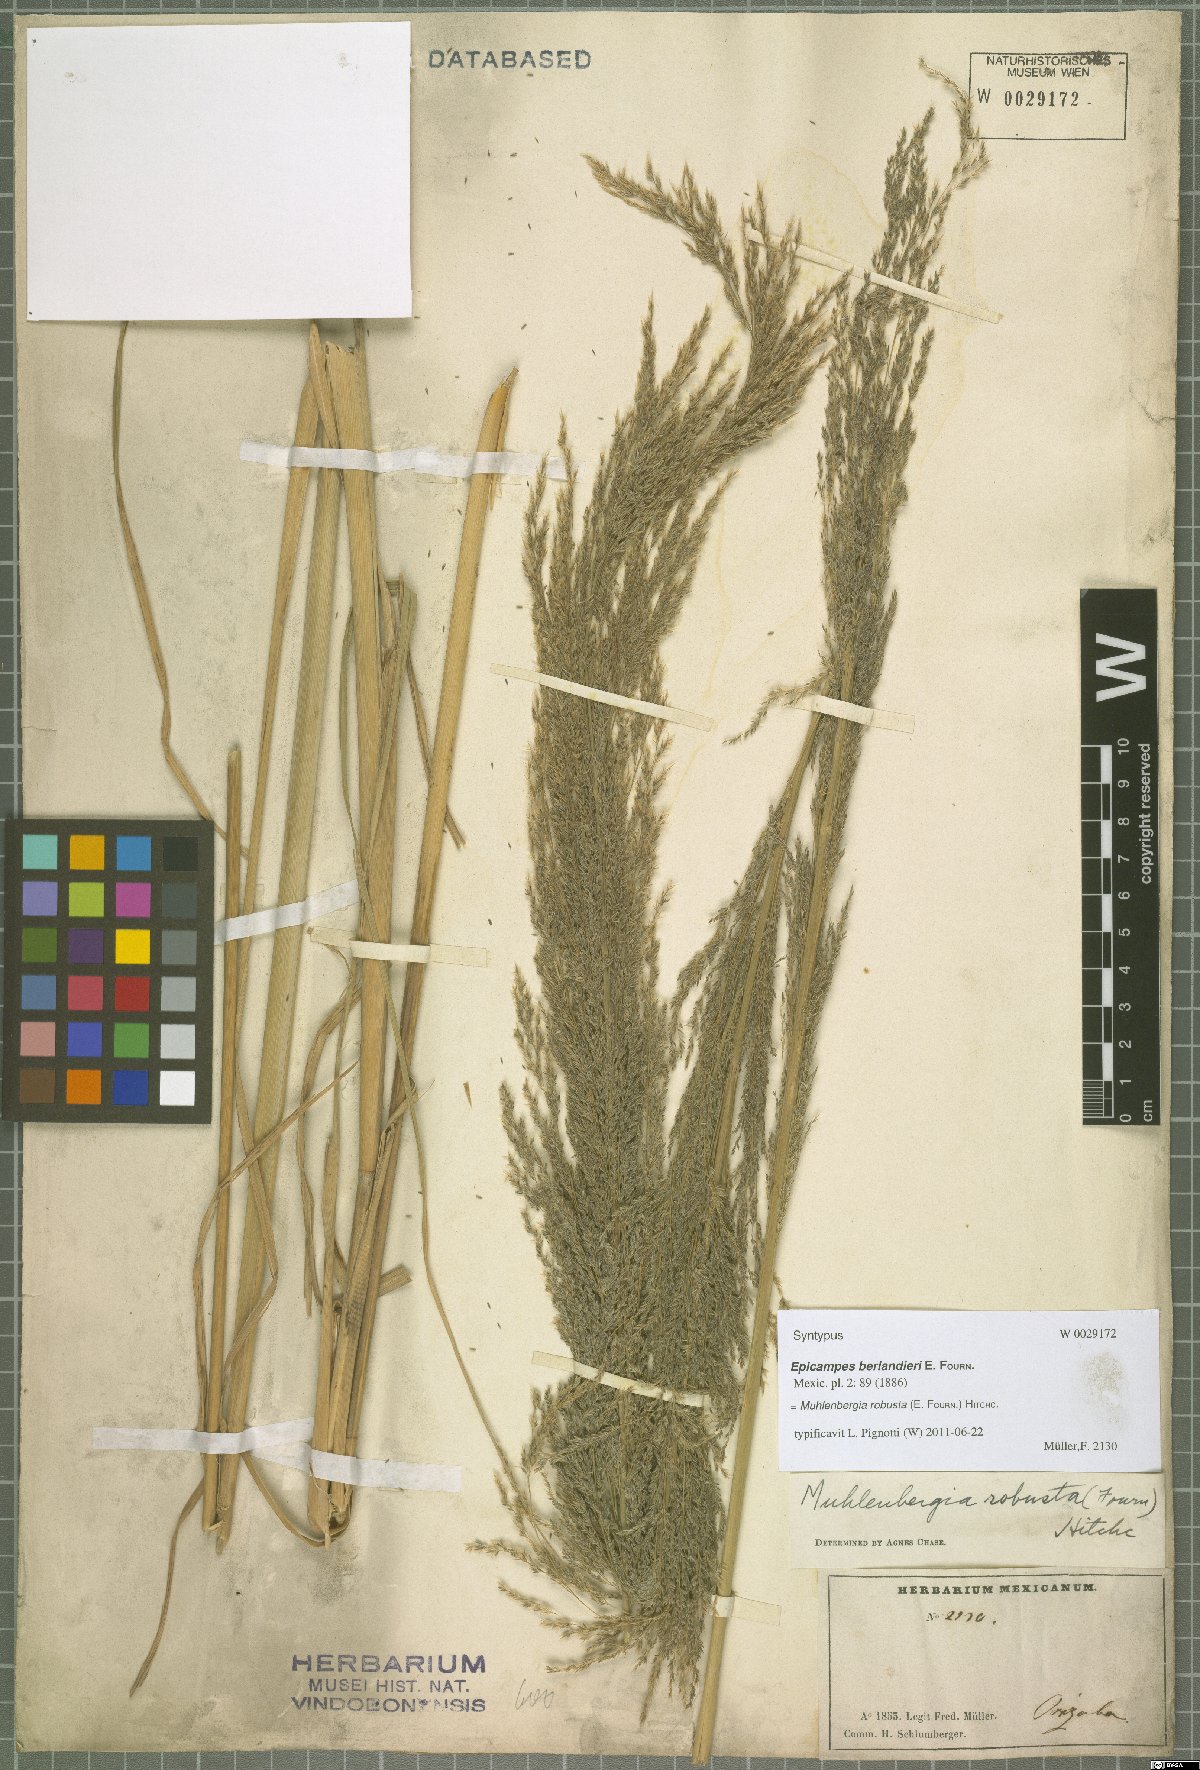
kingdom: Plantae
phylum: Tracheophyta
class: Liliopsida
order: Poales
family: Poaceae
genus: Muhlenbergia
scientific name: Muhlenbergia robusta
